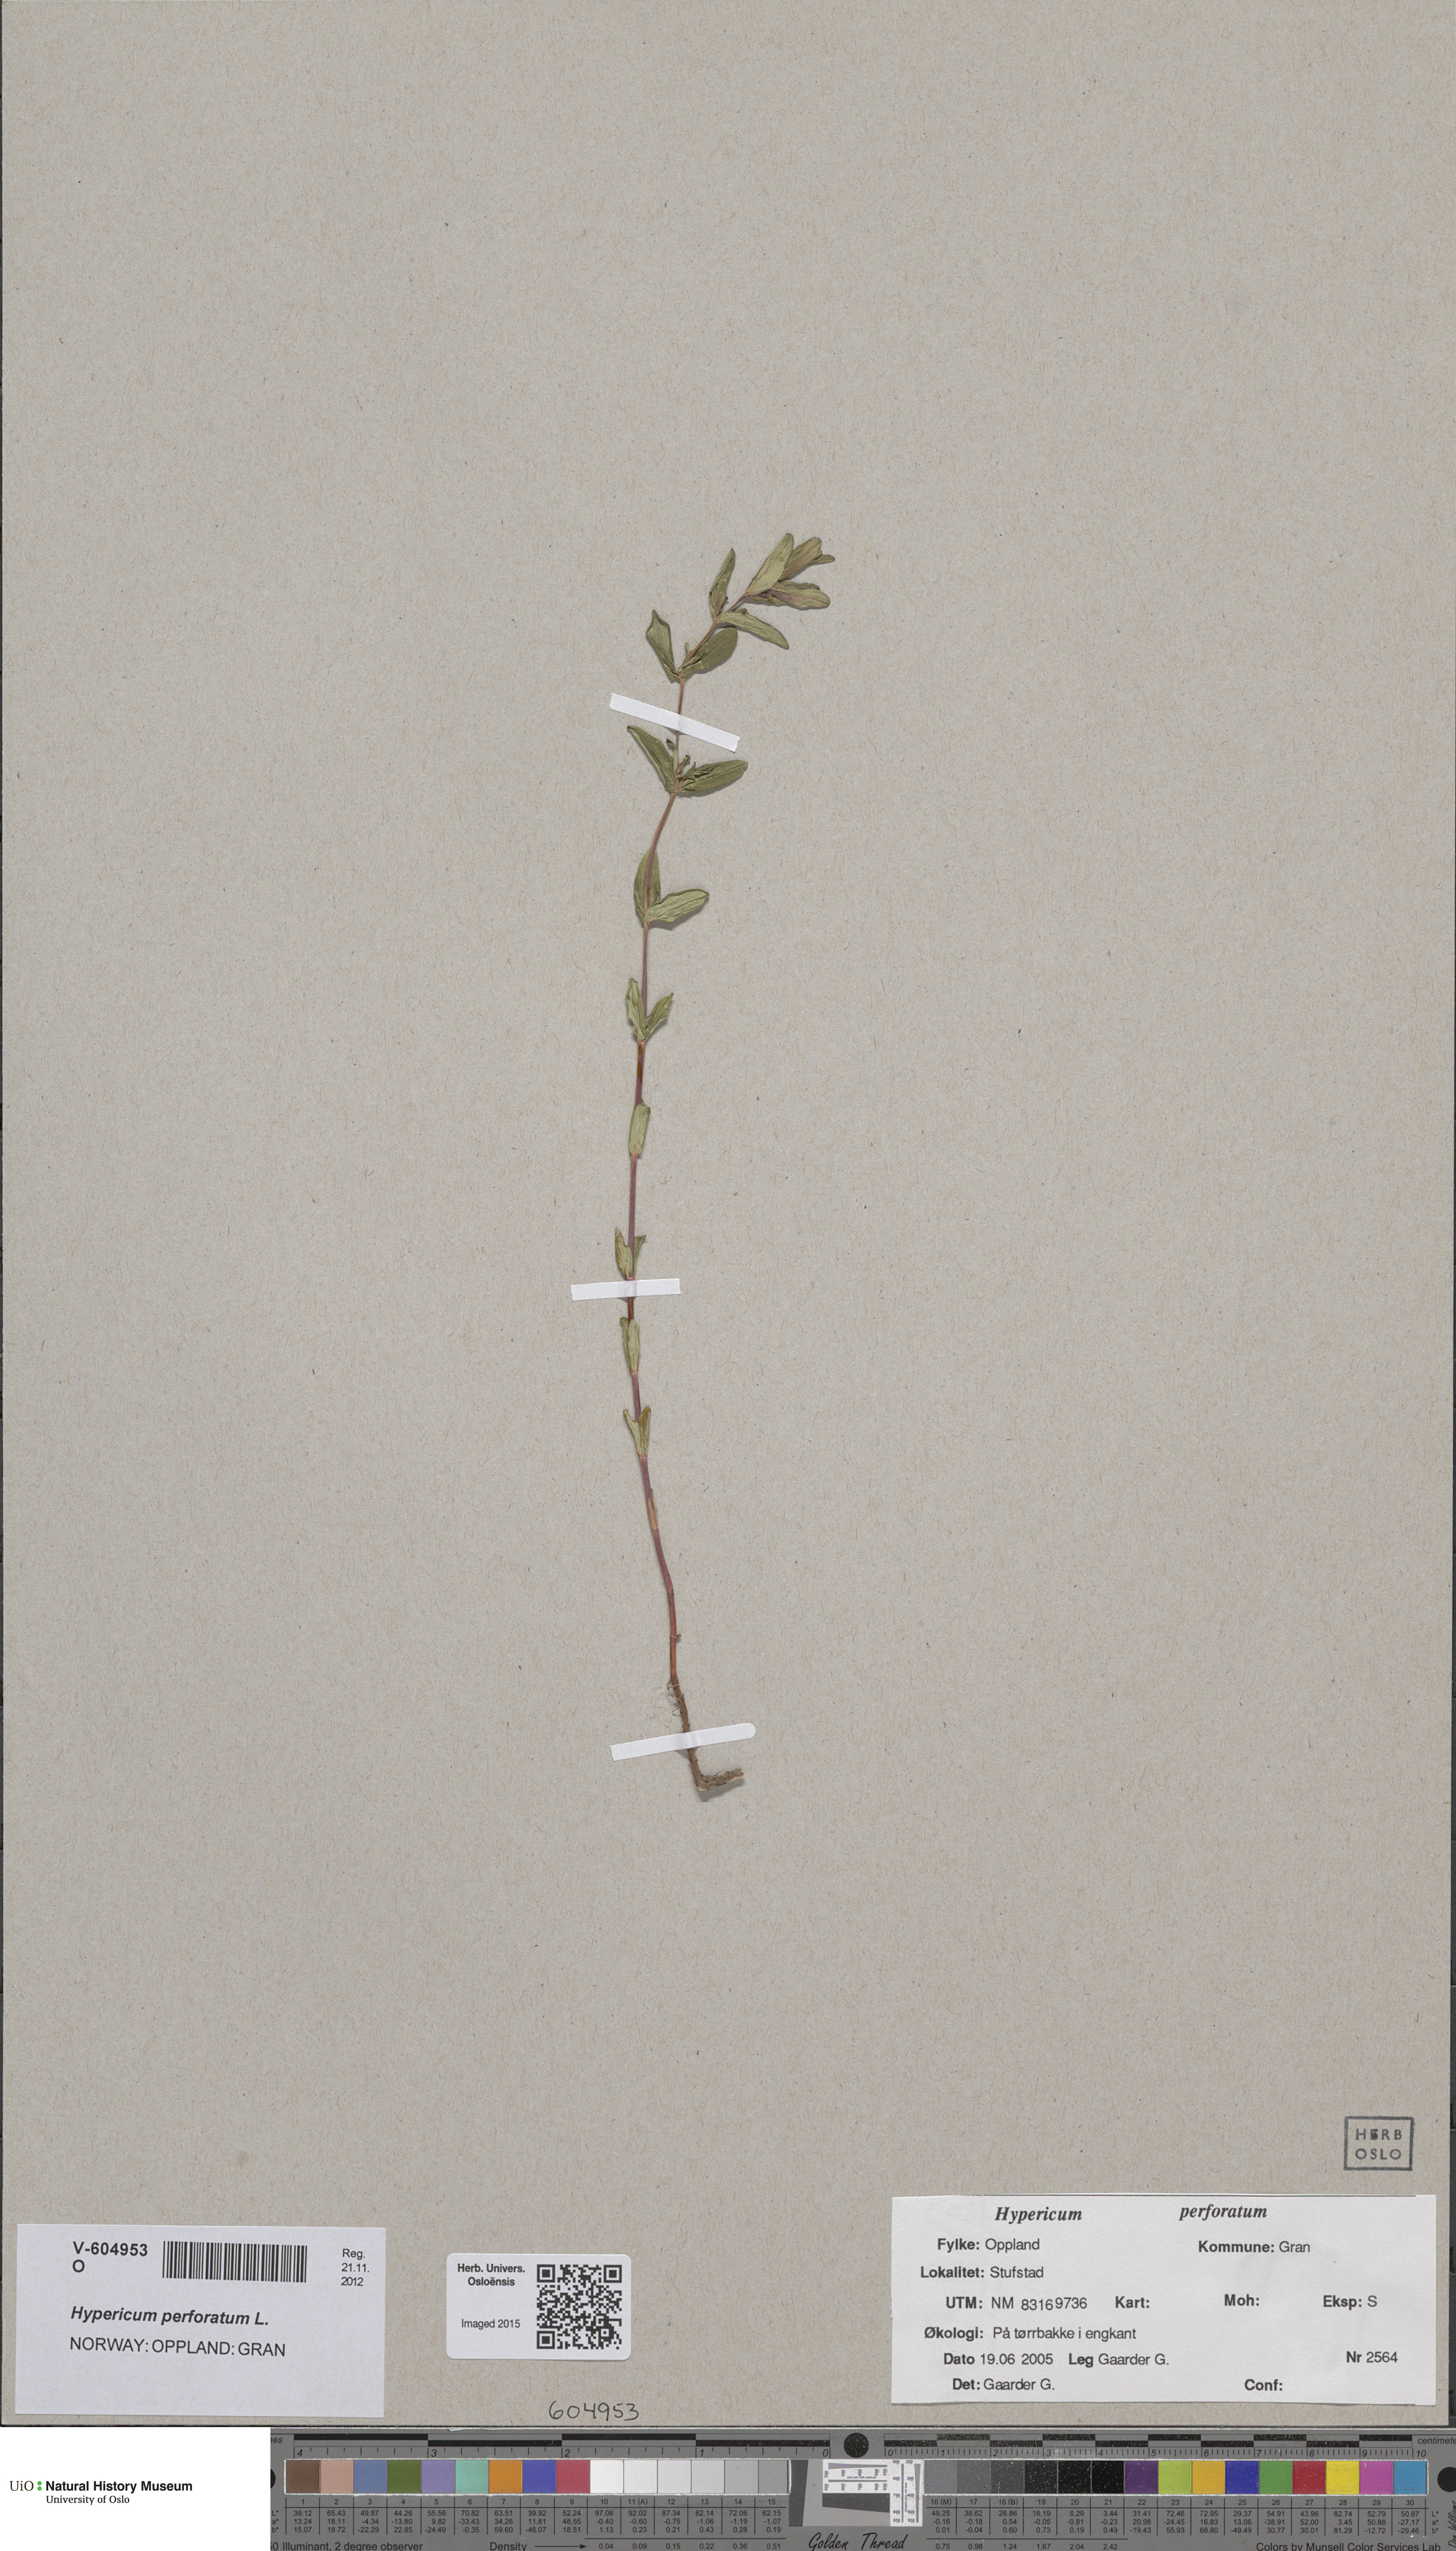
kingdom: Plantae
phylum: Tracheophyta
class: Magnoliopsida
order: Malpighiales
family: Hypericaceae
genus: Hypericum
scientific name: Hypericum maculatum
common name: Imperforate st. john's-wort
